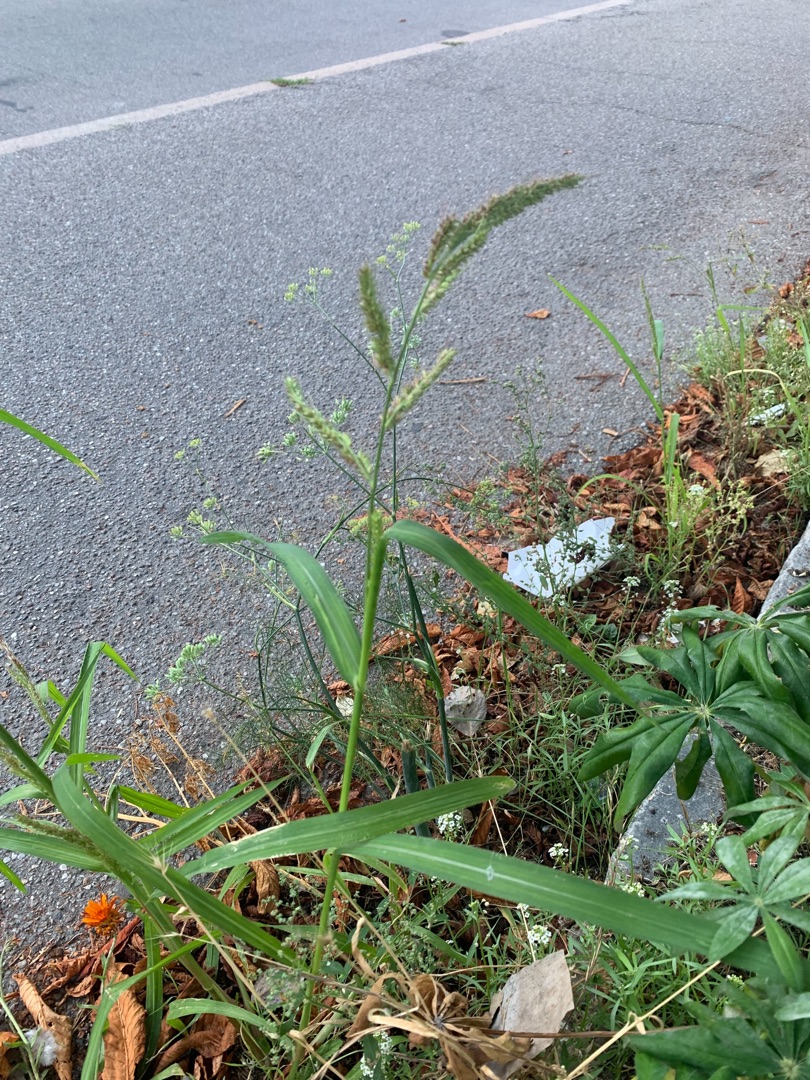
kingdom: Plantae
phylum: Tracheophyta
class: Liliopsida
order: Poales
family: Poaceae
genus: Echinochloa
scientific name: Echinochloa crus-galli
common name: Almindelig hanespore
